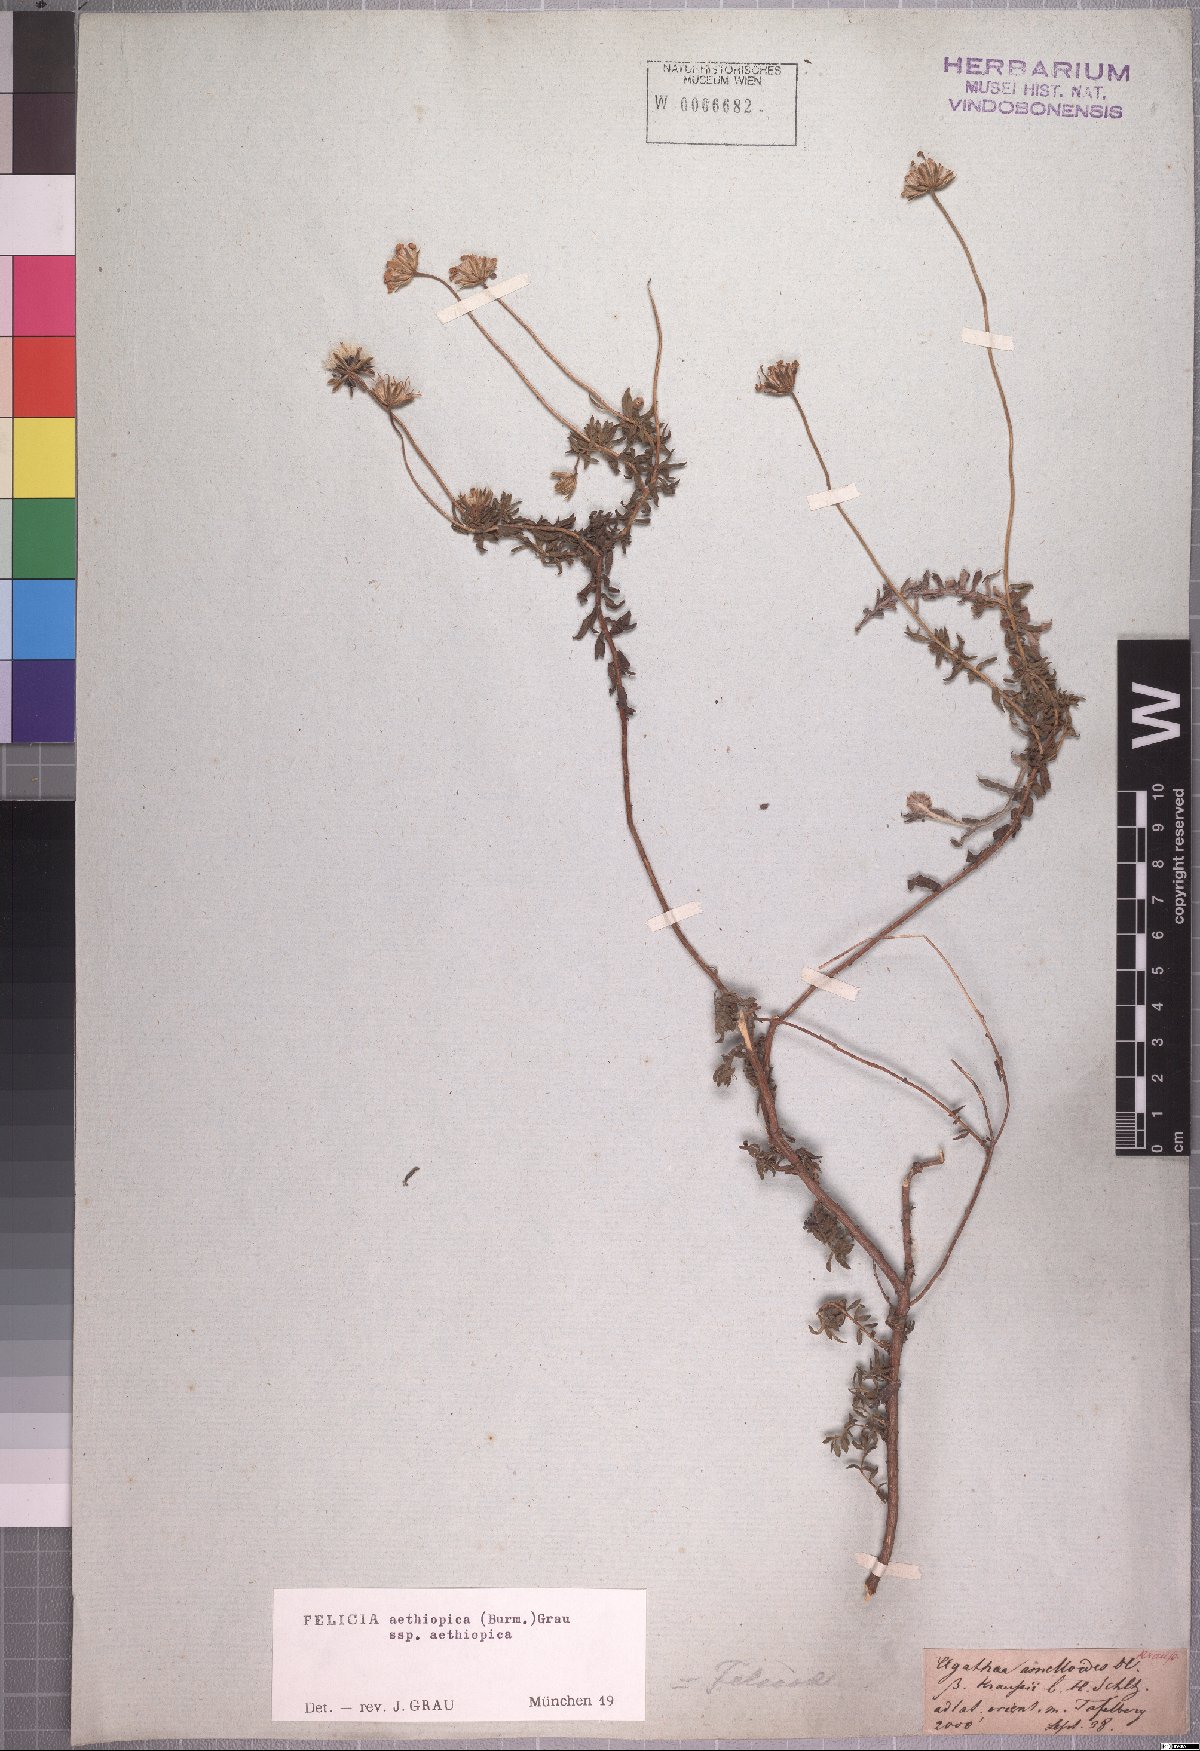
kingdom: Plantae
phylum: Tracheophyta
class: Magnoliopsida
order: Asterales
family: Asteraceae
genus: Felicia
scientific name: Felicia aethiopica
